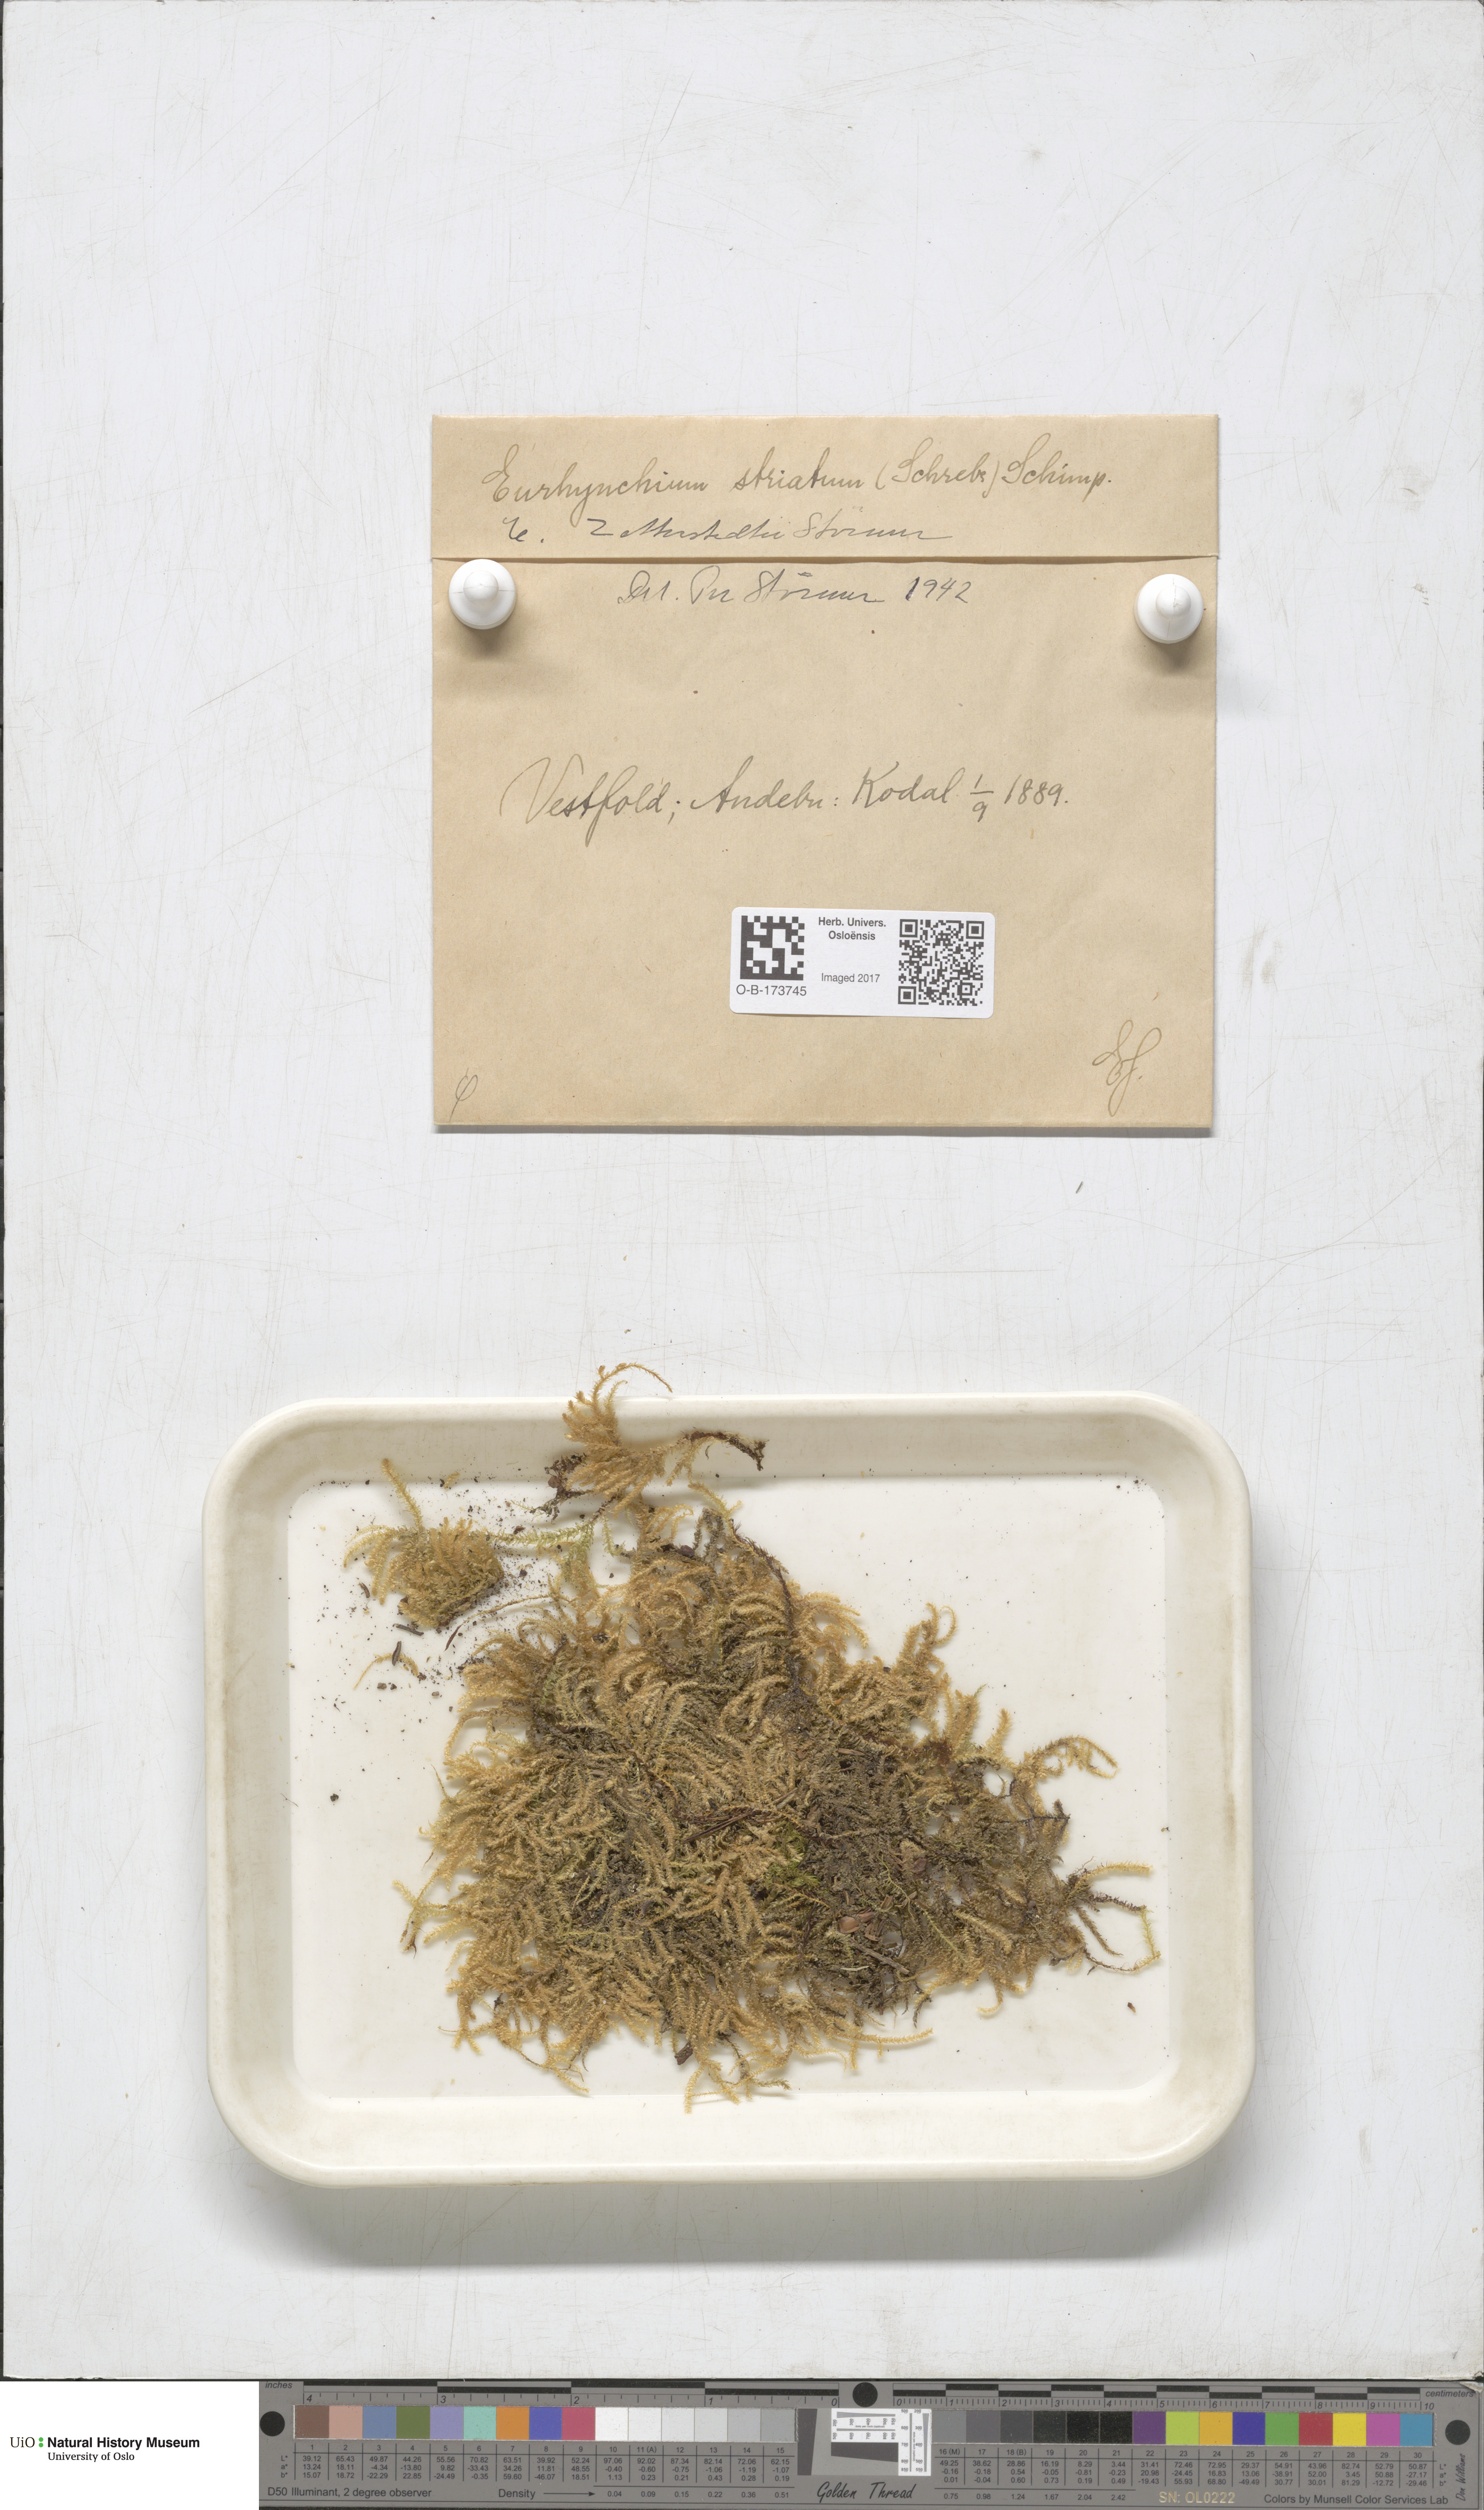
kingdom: Plantae
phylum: Bryophyta
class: Bryopsida
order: Hypnales
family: Brachytheciaceae
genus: Eurhynchium
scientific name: Eurhynchium angustirete
